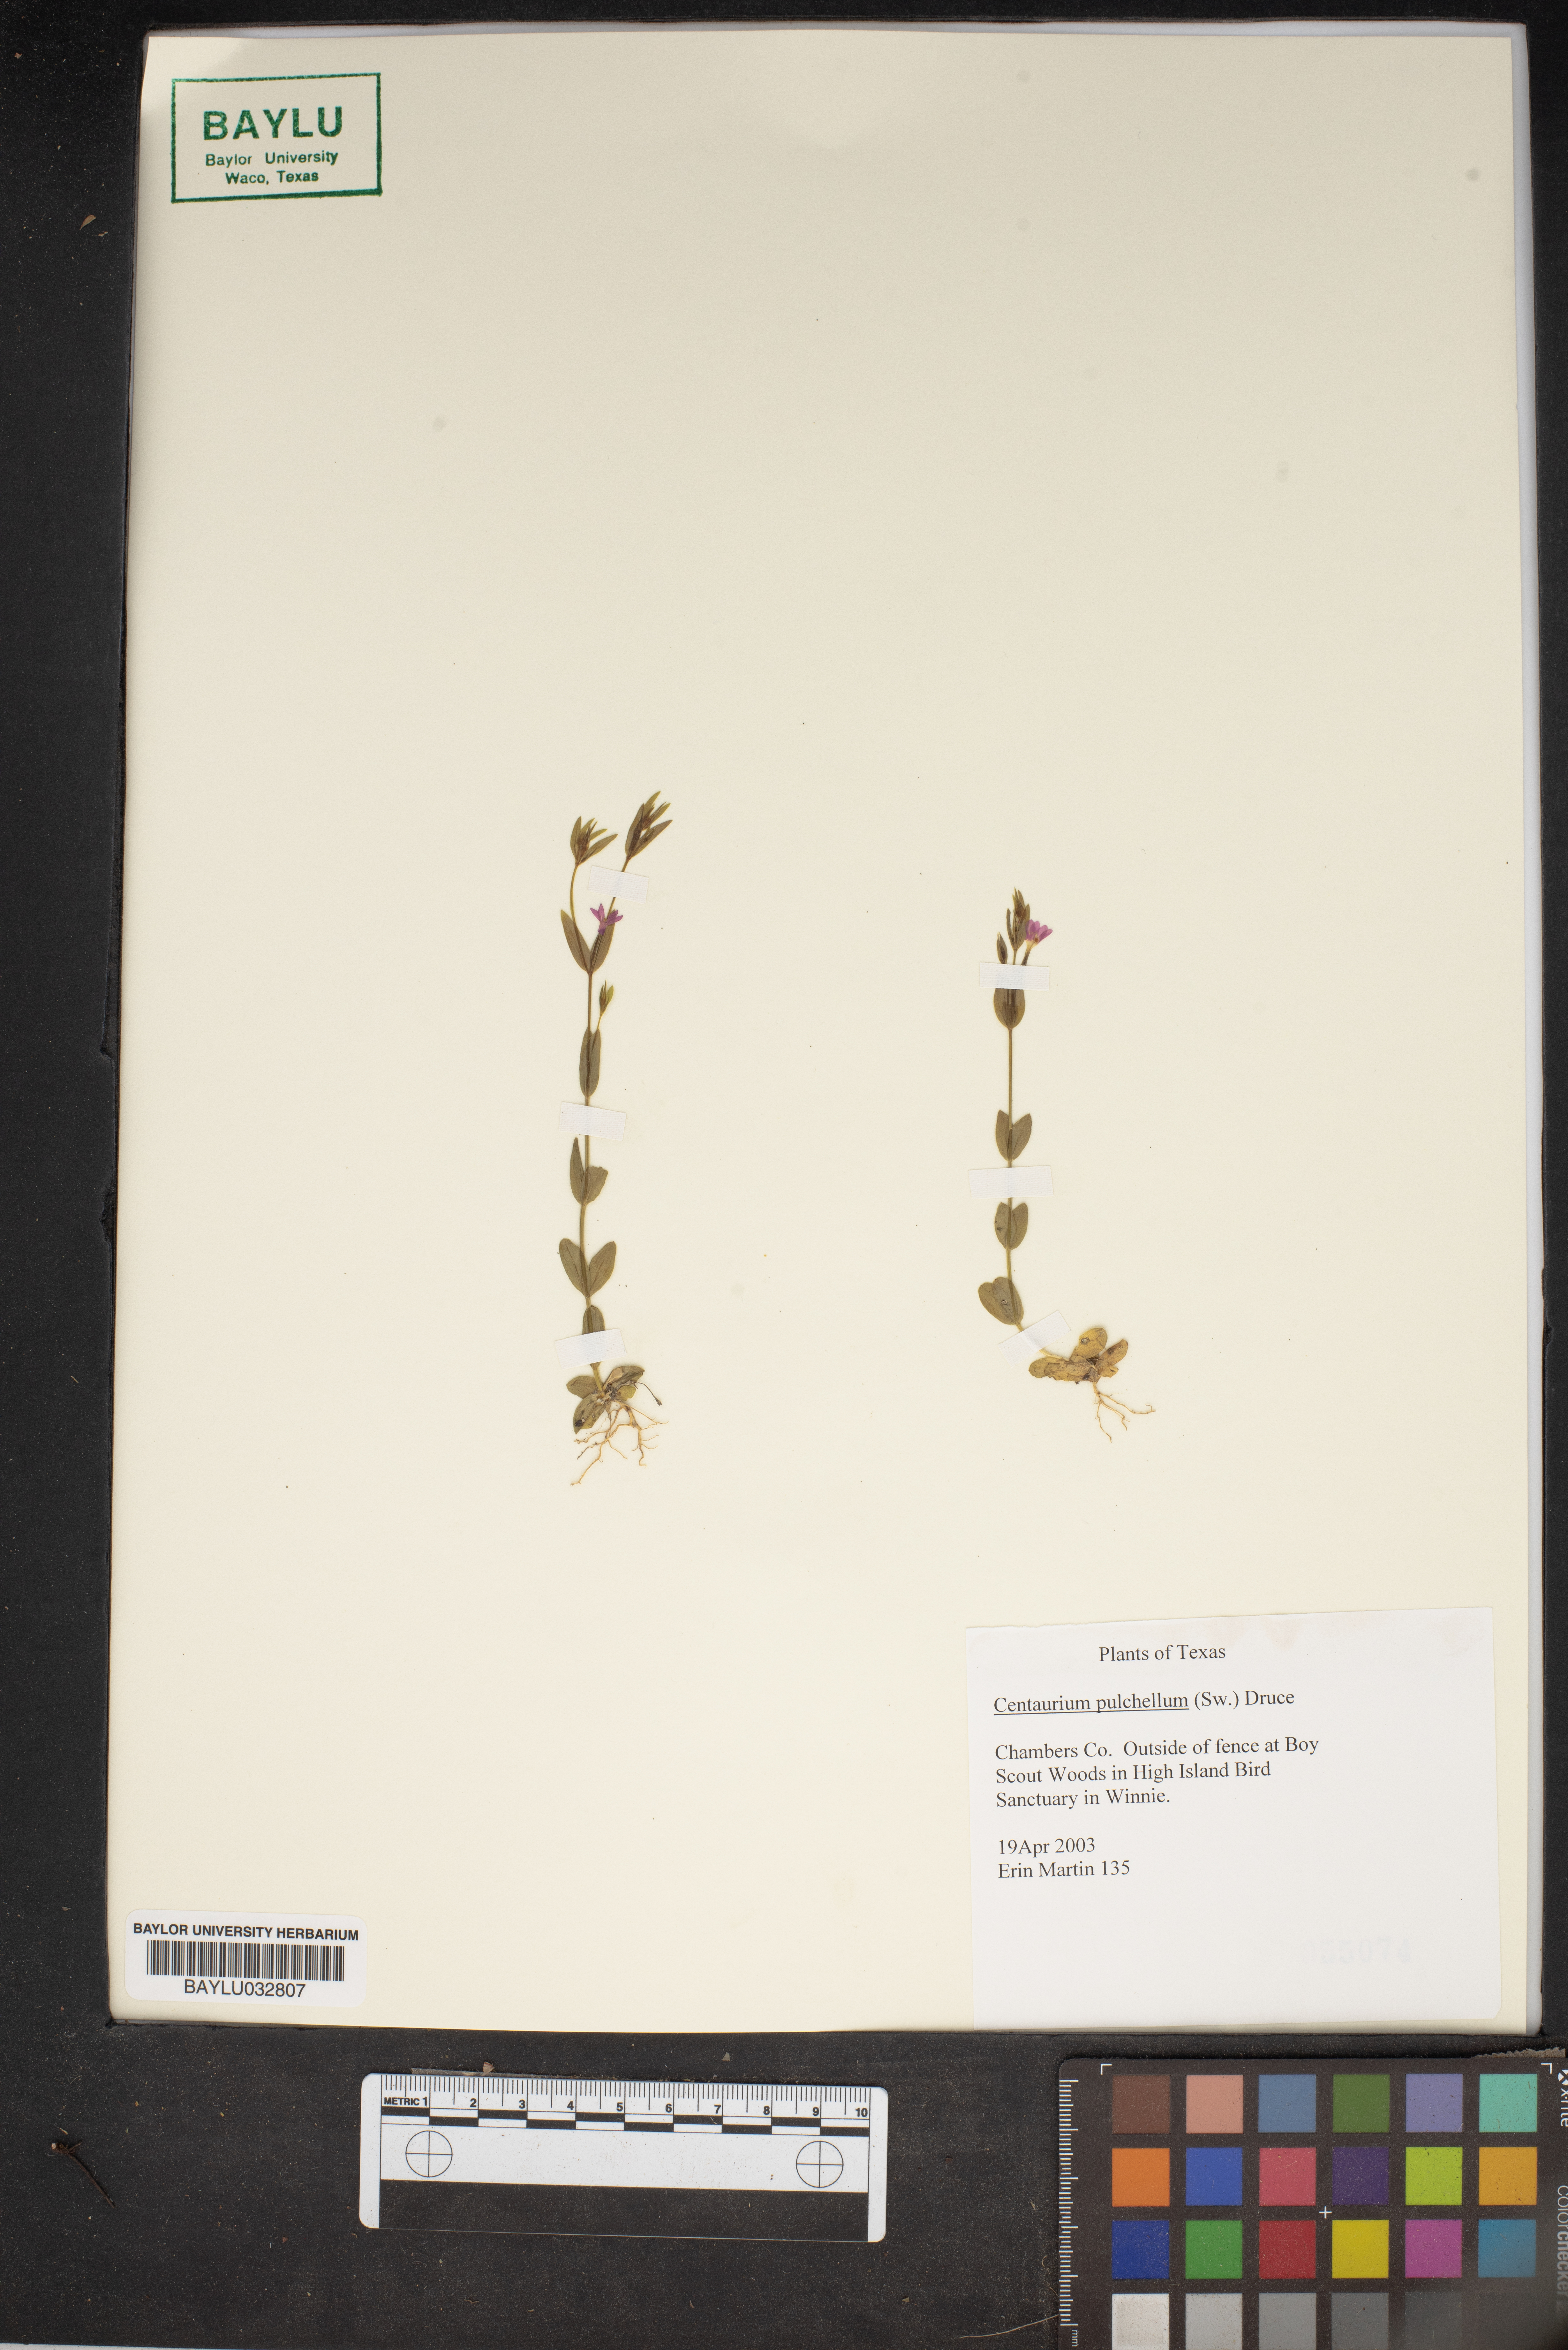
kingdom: Plantae
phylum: Tracheophyta
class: Magnoliopsida
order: Gentianales
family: Gentianaceae
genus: Centaurium
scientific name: Centaurium pulchellum
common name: Lesser centaury
